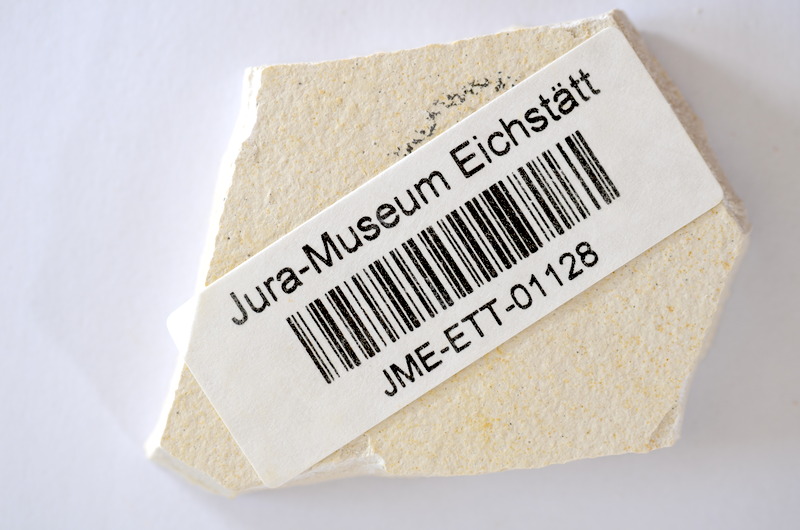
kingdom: Animalia
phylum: Chordata
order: Salmoniformes
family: Orthogonikleithridae
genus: Orthogonikleithrus
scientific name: Orthogonikleithrus hoelli
